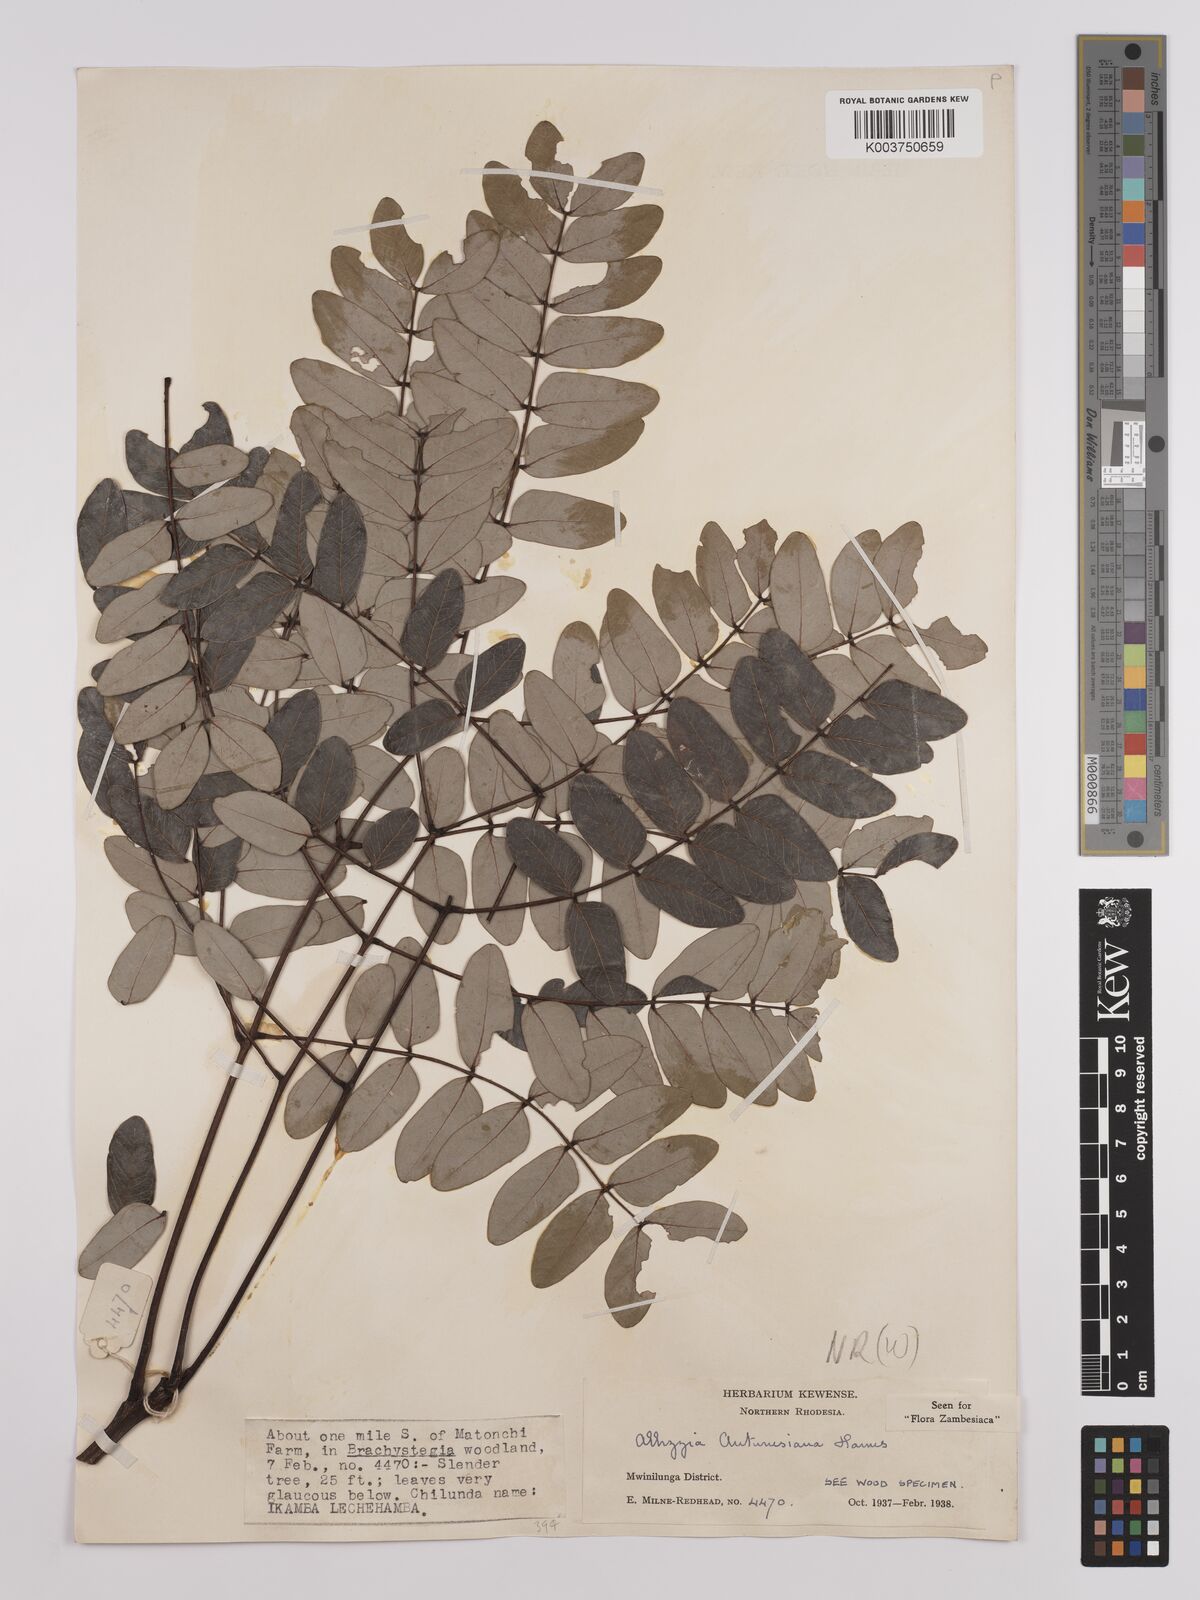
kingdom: Plantae
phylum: Tracheophyta
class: Magnoliopsida
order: Fabales
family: Fabaceae
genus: Albizia
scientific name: Albizia antunesiana
